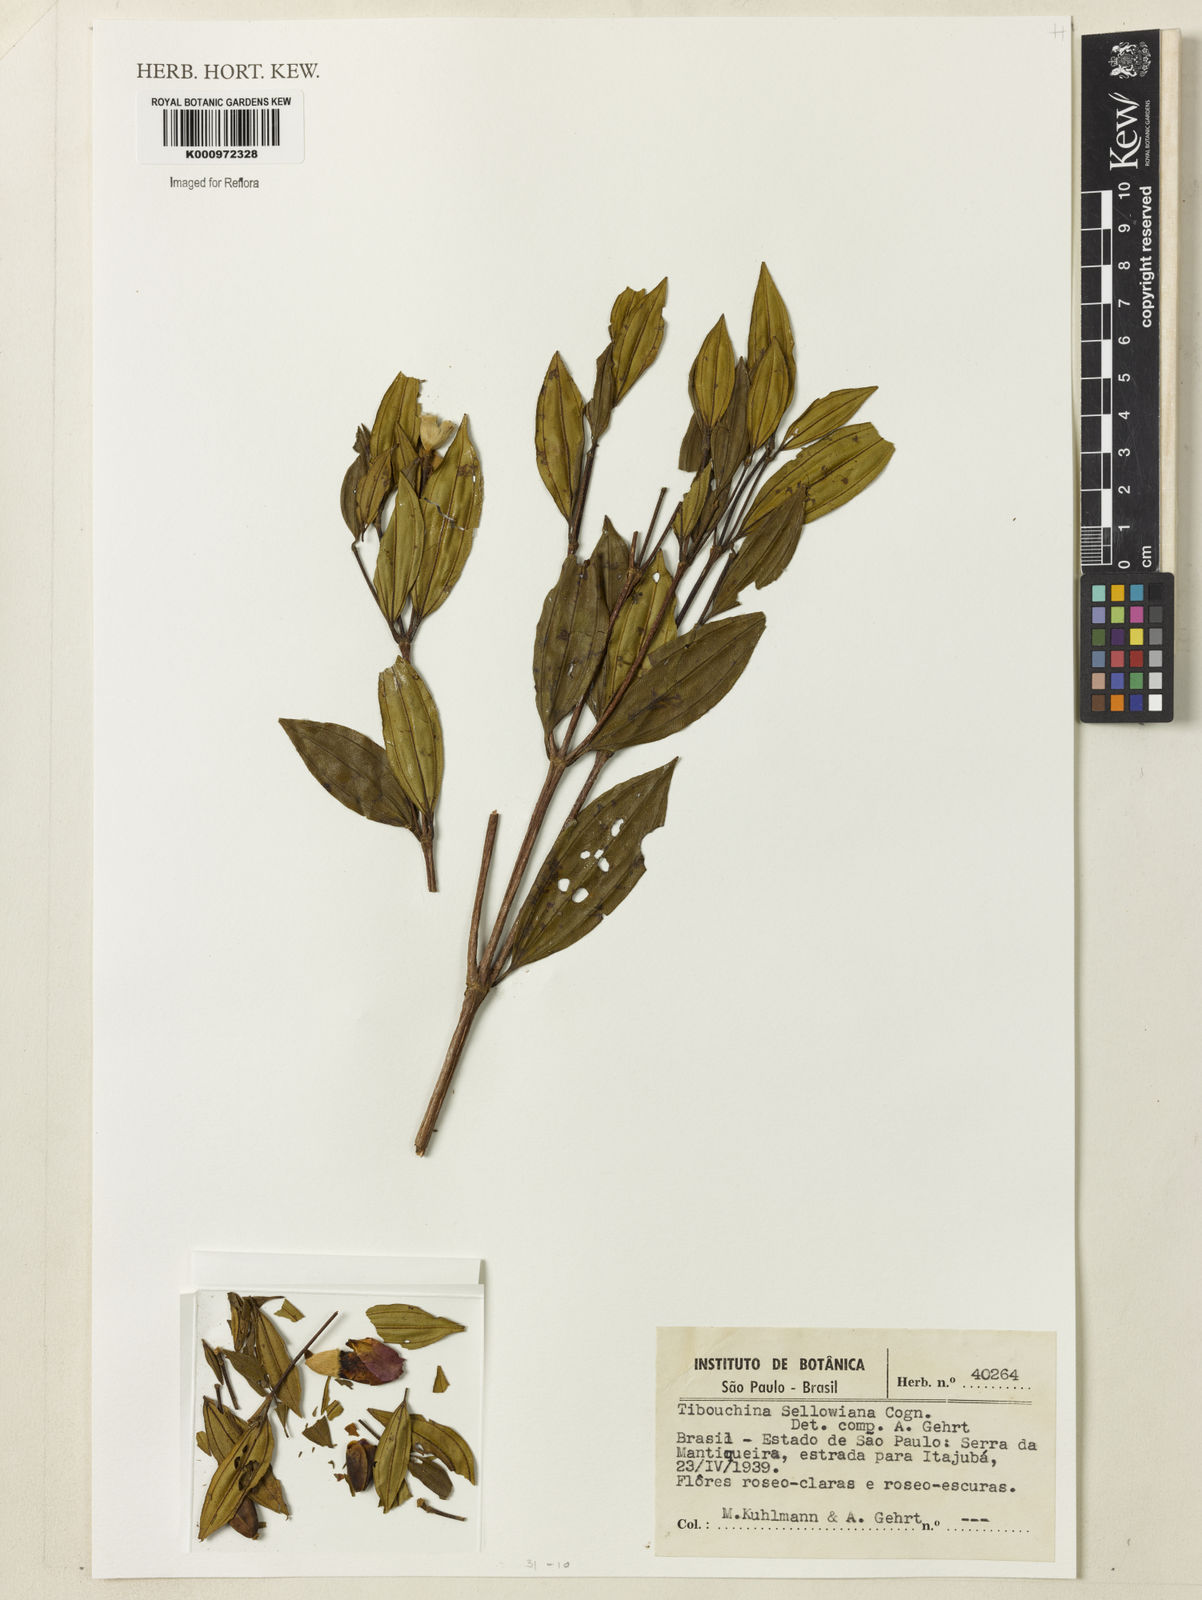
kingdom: Plantae
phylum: Tracheophyta
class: Magnoliopsida
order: Myrtales
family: Melastomataceae
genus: Pleroma
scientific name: Pleroma sellowianum
